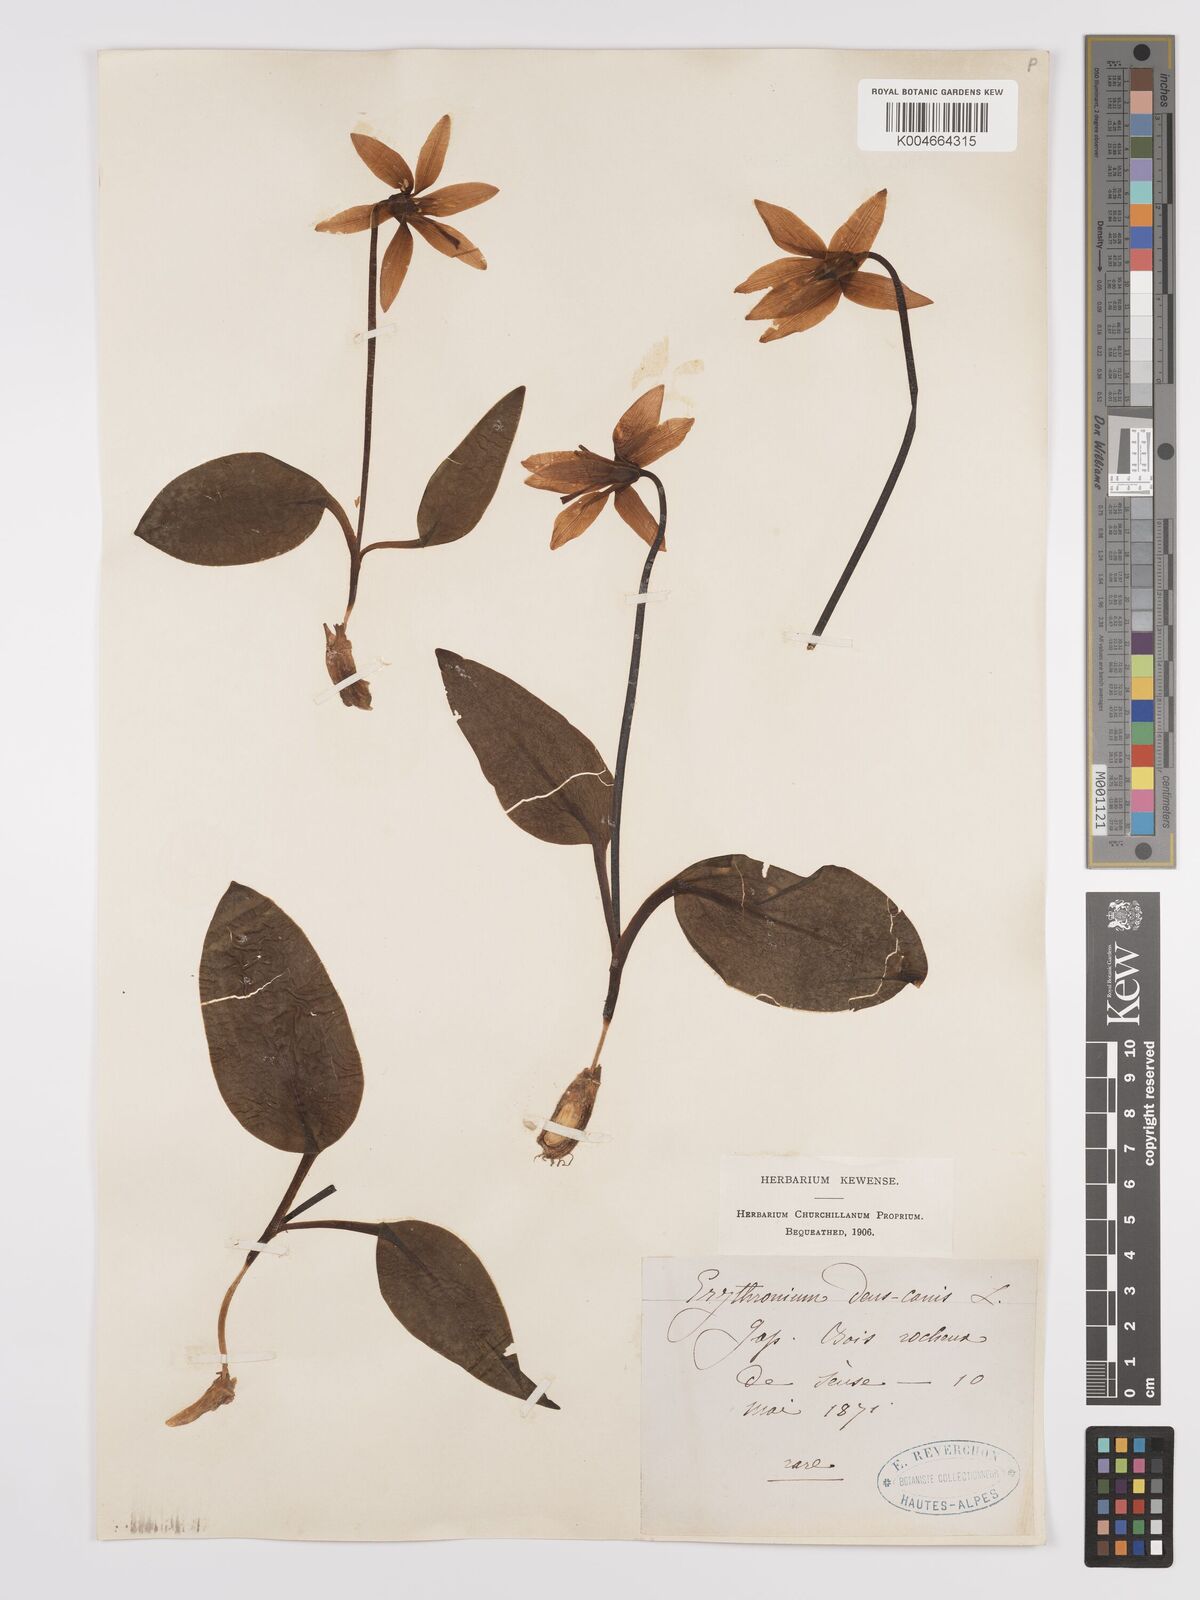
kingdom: Plantae
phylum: Tracheophyta
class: Liliopsida
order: Liliales
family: Liliaceae
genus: Erythronium
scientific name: Erythronium dens-canis
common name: Dog's-tooth-violet
